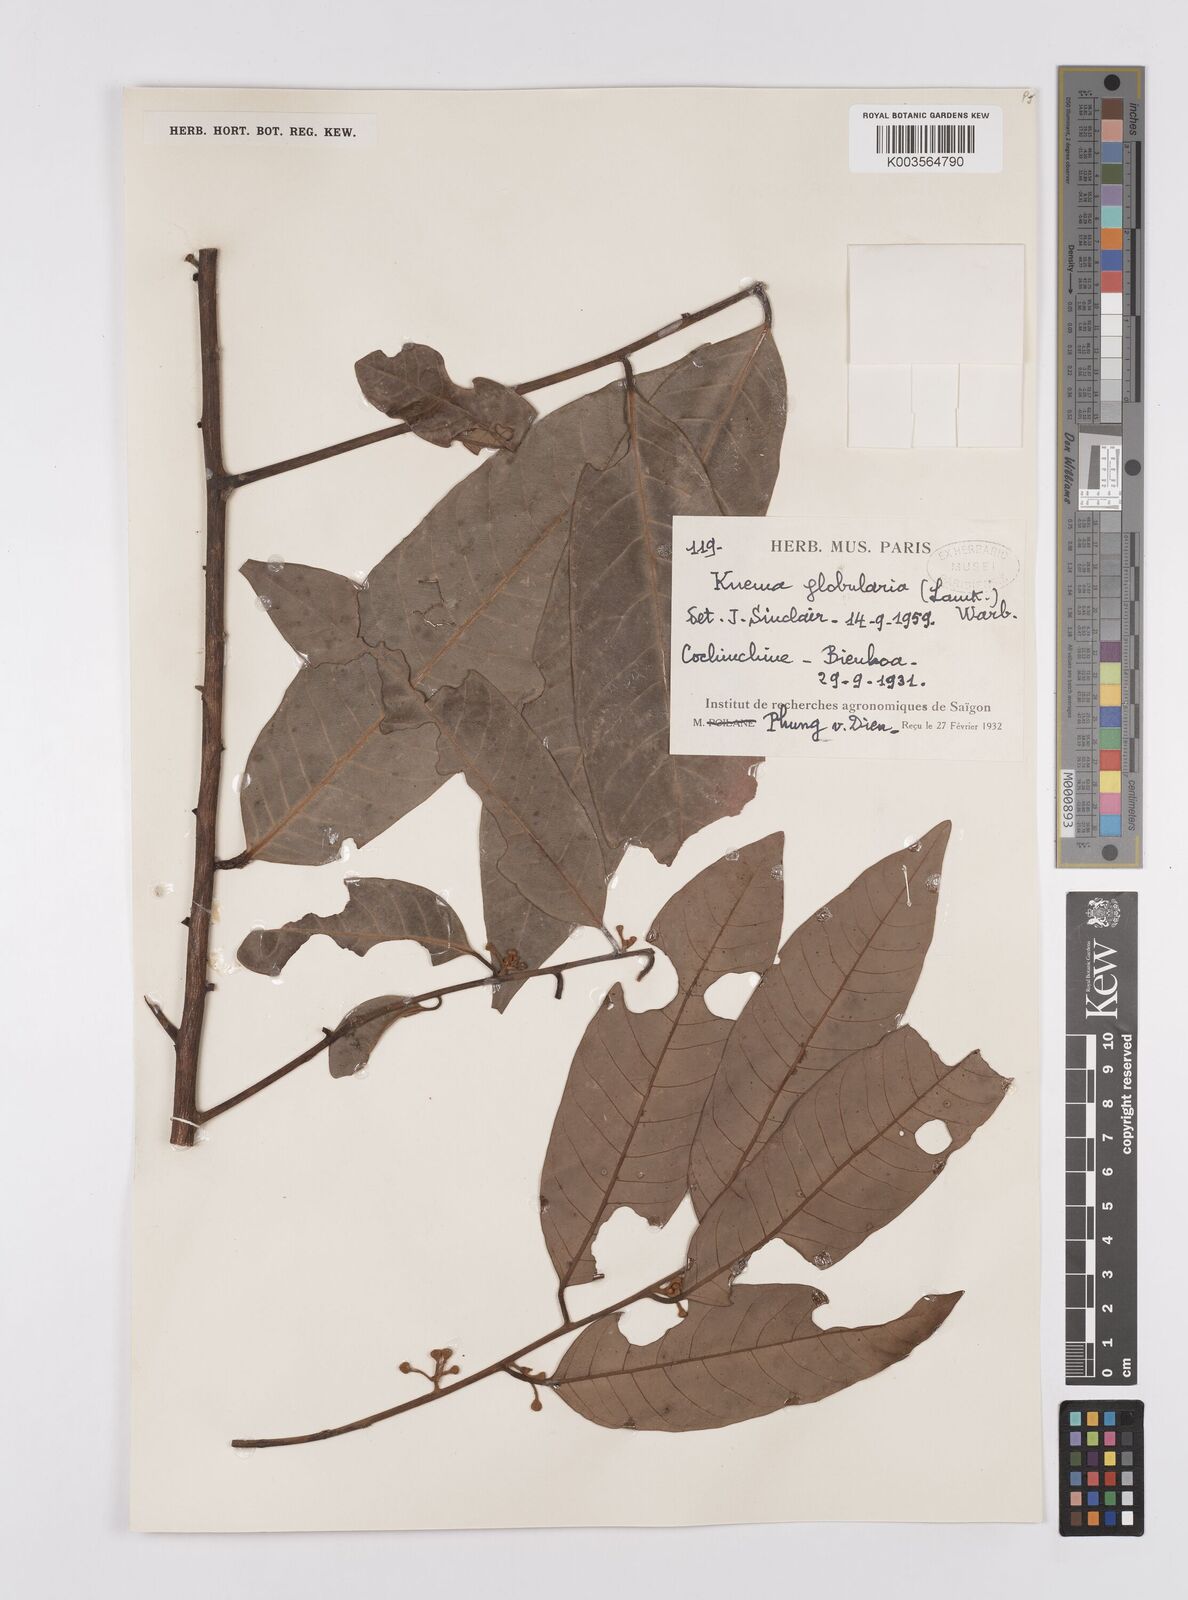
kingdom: Plantae
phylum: Tracheophyta
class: Magnoliopsida
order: Magnoliales
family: Myristicaceae
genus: Knema
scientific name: Knema globularia
